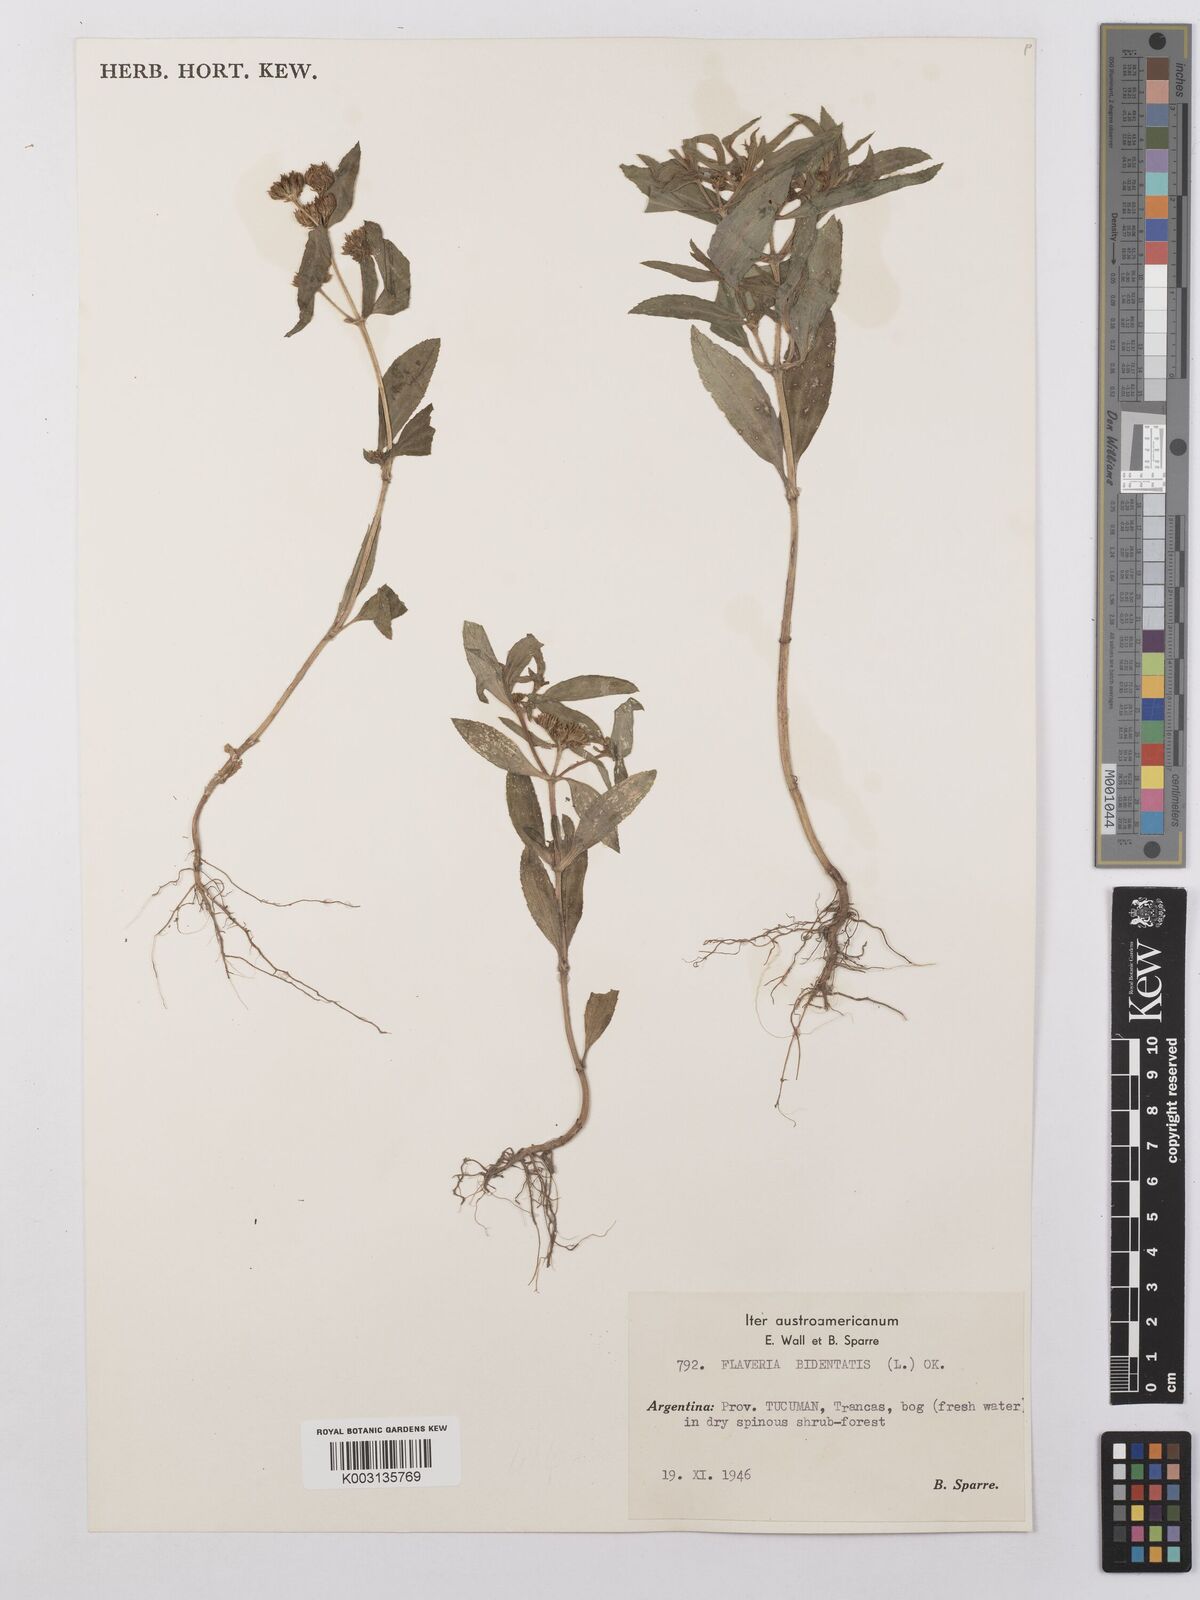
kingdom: Plantae
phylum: Tracheophyta
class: Magnoliopsida
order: Asterales
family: Asteraceae
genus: Flaveria
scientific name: Flaveria bidentis
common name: Coastal plain yellowtops
